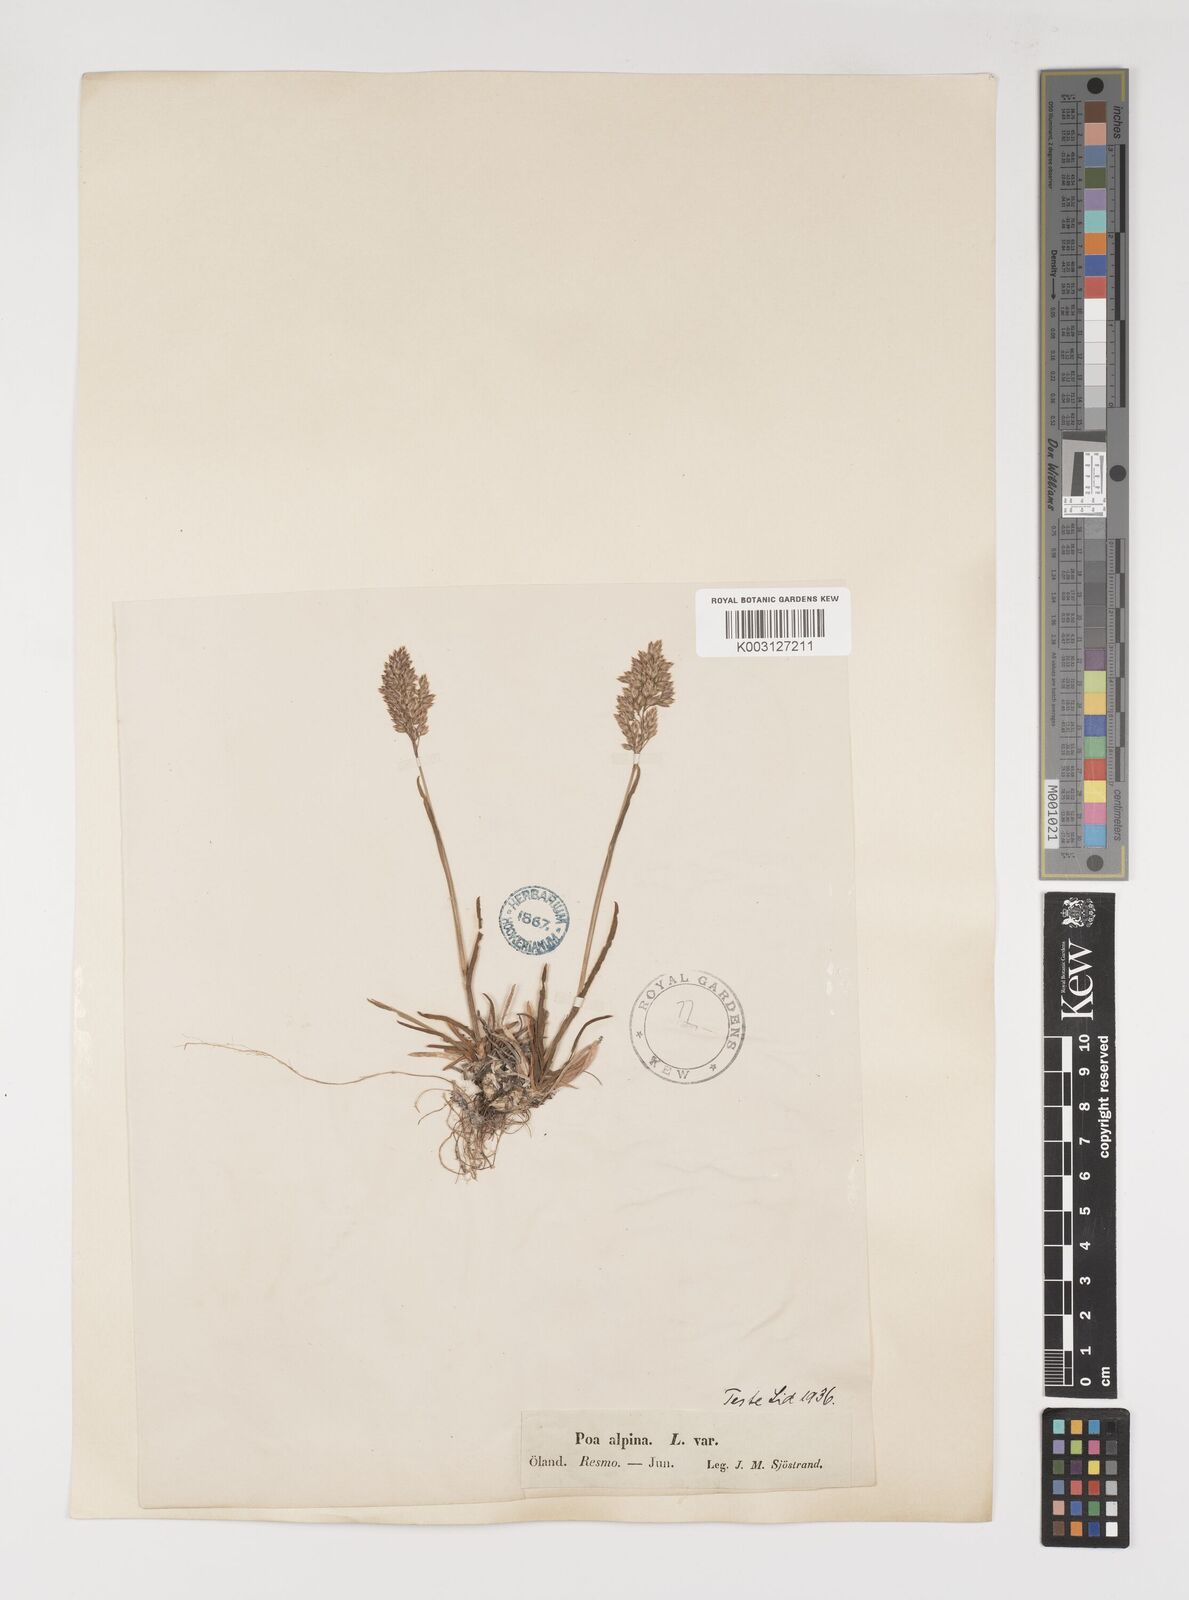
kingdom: Plantae
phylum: Tracheophyta
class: Liliopsida
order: Poales
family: Poaceae
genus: Poa
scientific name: Poa alpina
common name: Alpine bluegrass
